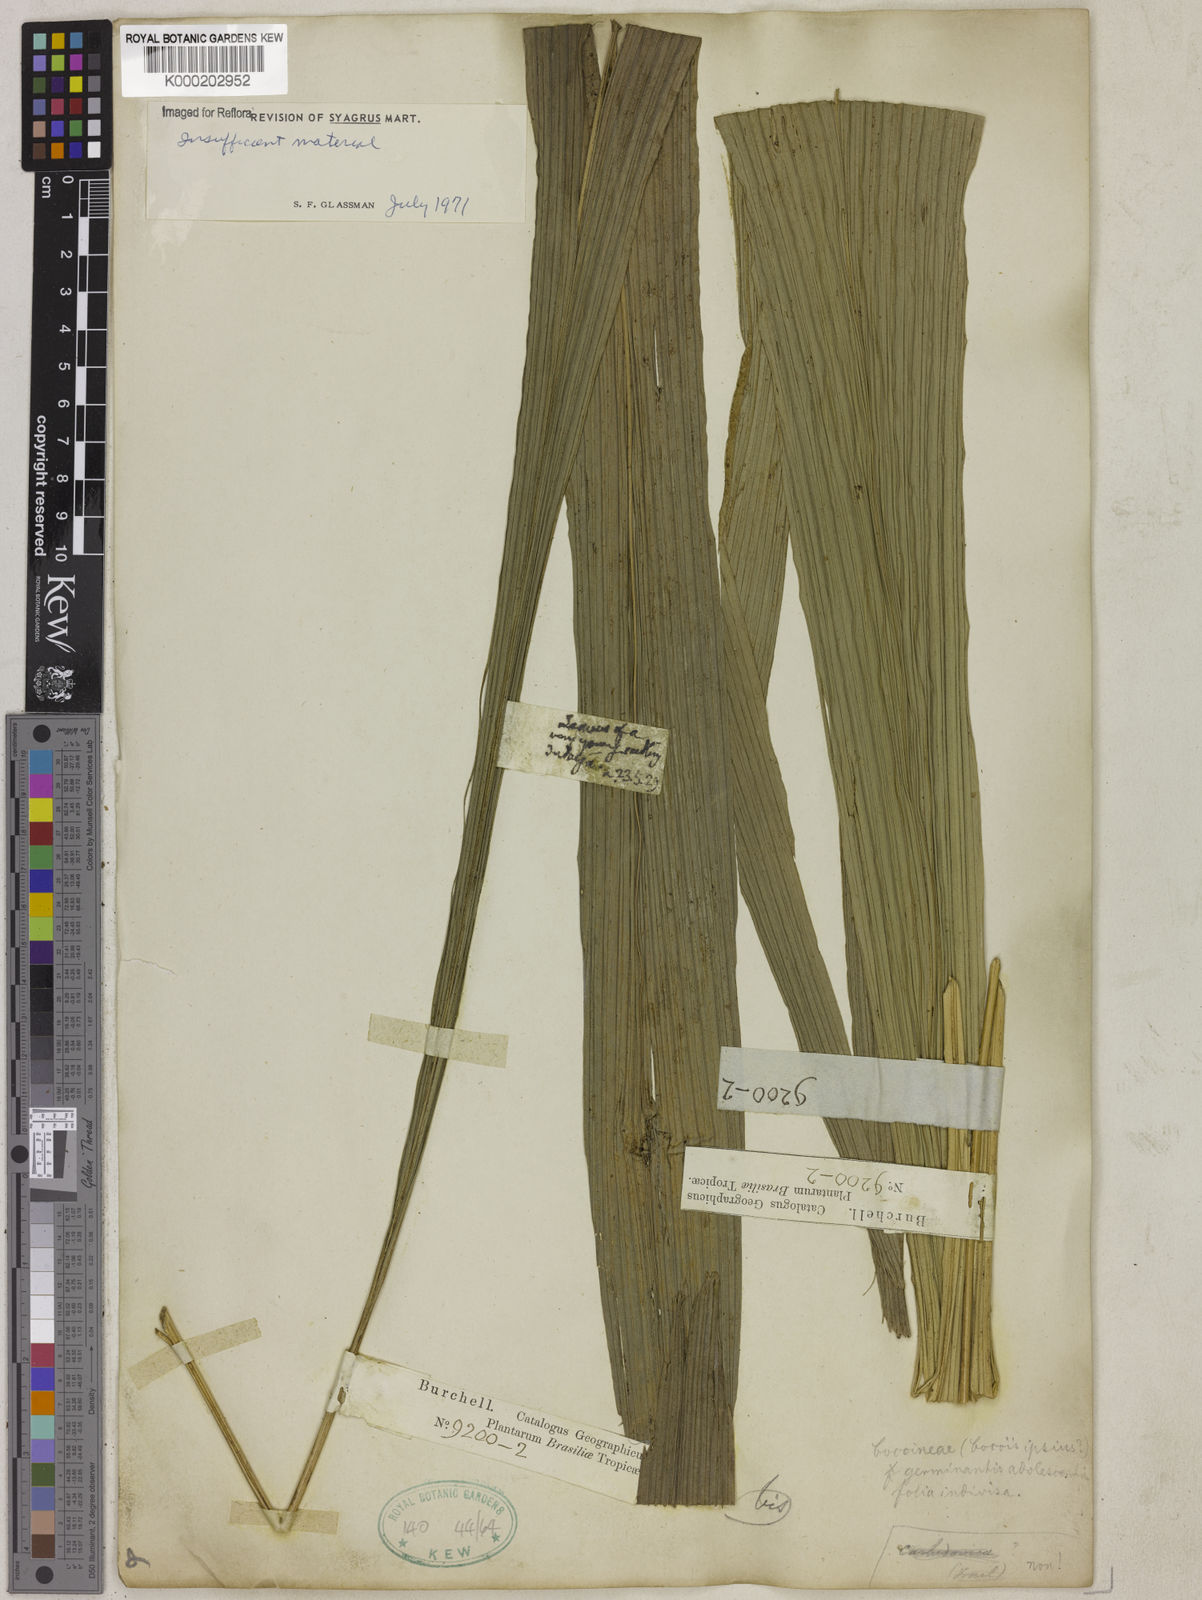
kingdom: Plantae
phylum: Tracheophyta
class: Liliopsida
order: Arecales
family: Arecaceae
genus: Syagrus
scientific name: Syagrus
